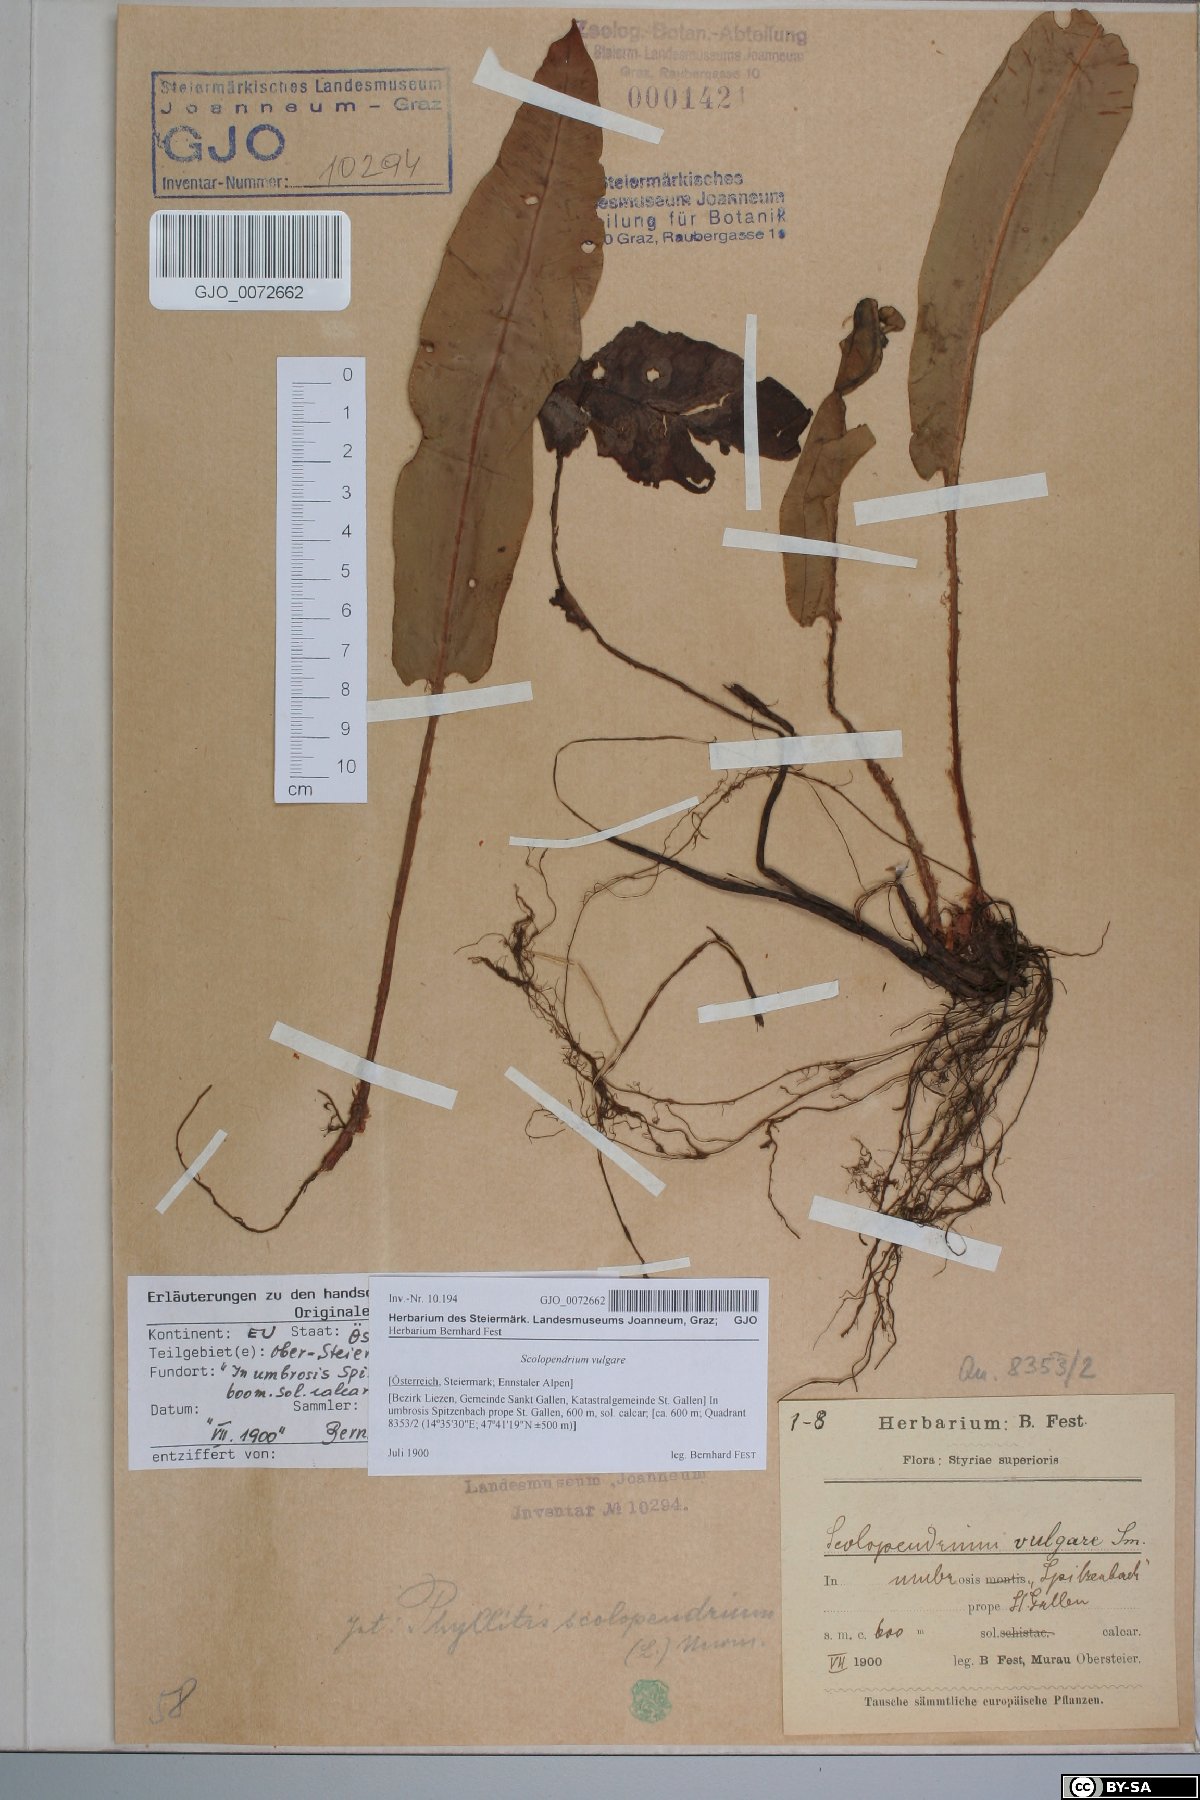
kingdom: Plantae
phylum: Tracheophyta
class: Polypodiopsida
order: Polypodiales
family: Aspleniaceae
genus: Asplenium
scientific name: Asplenium scolopendrium
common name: Hart's-tongue fern
